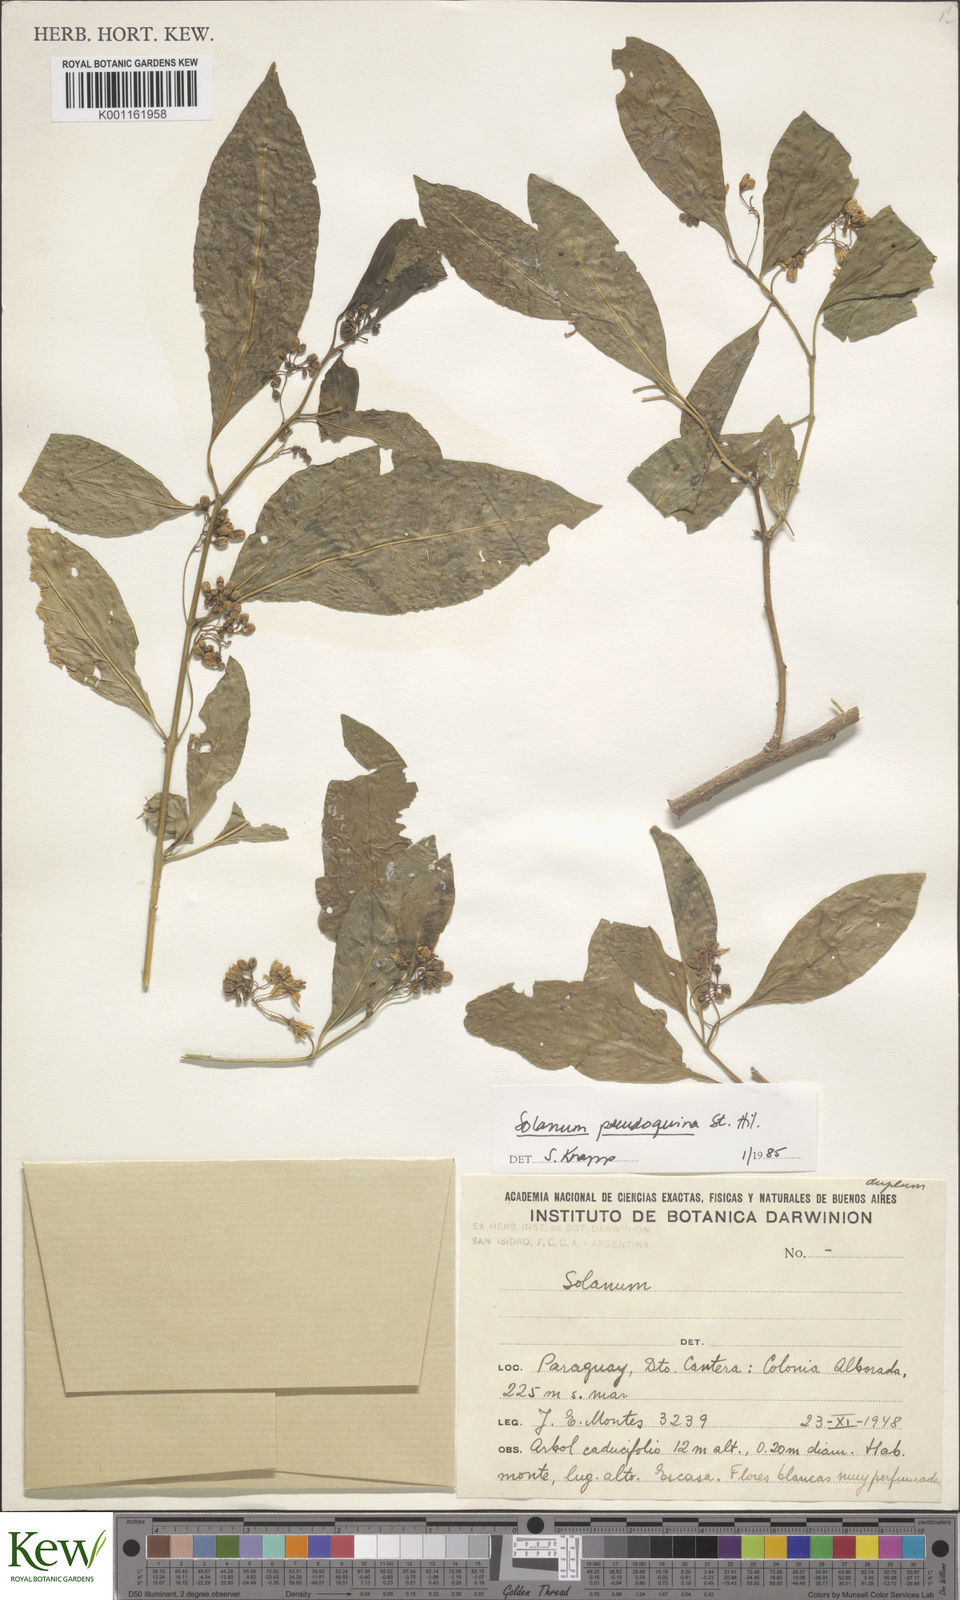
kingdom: Plantae
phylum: Tracheophyta
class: Magnoliopsida
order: Solanales
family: Solanaceae
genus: Solanum
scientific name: Solanum pseudoquina
